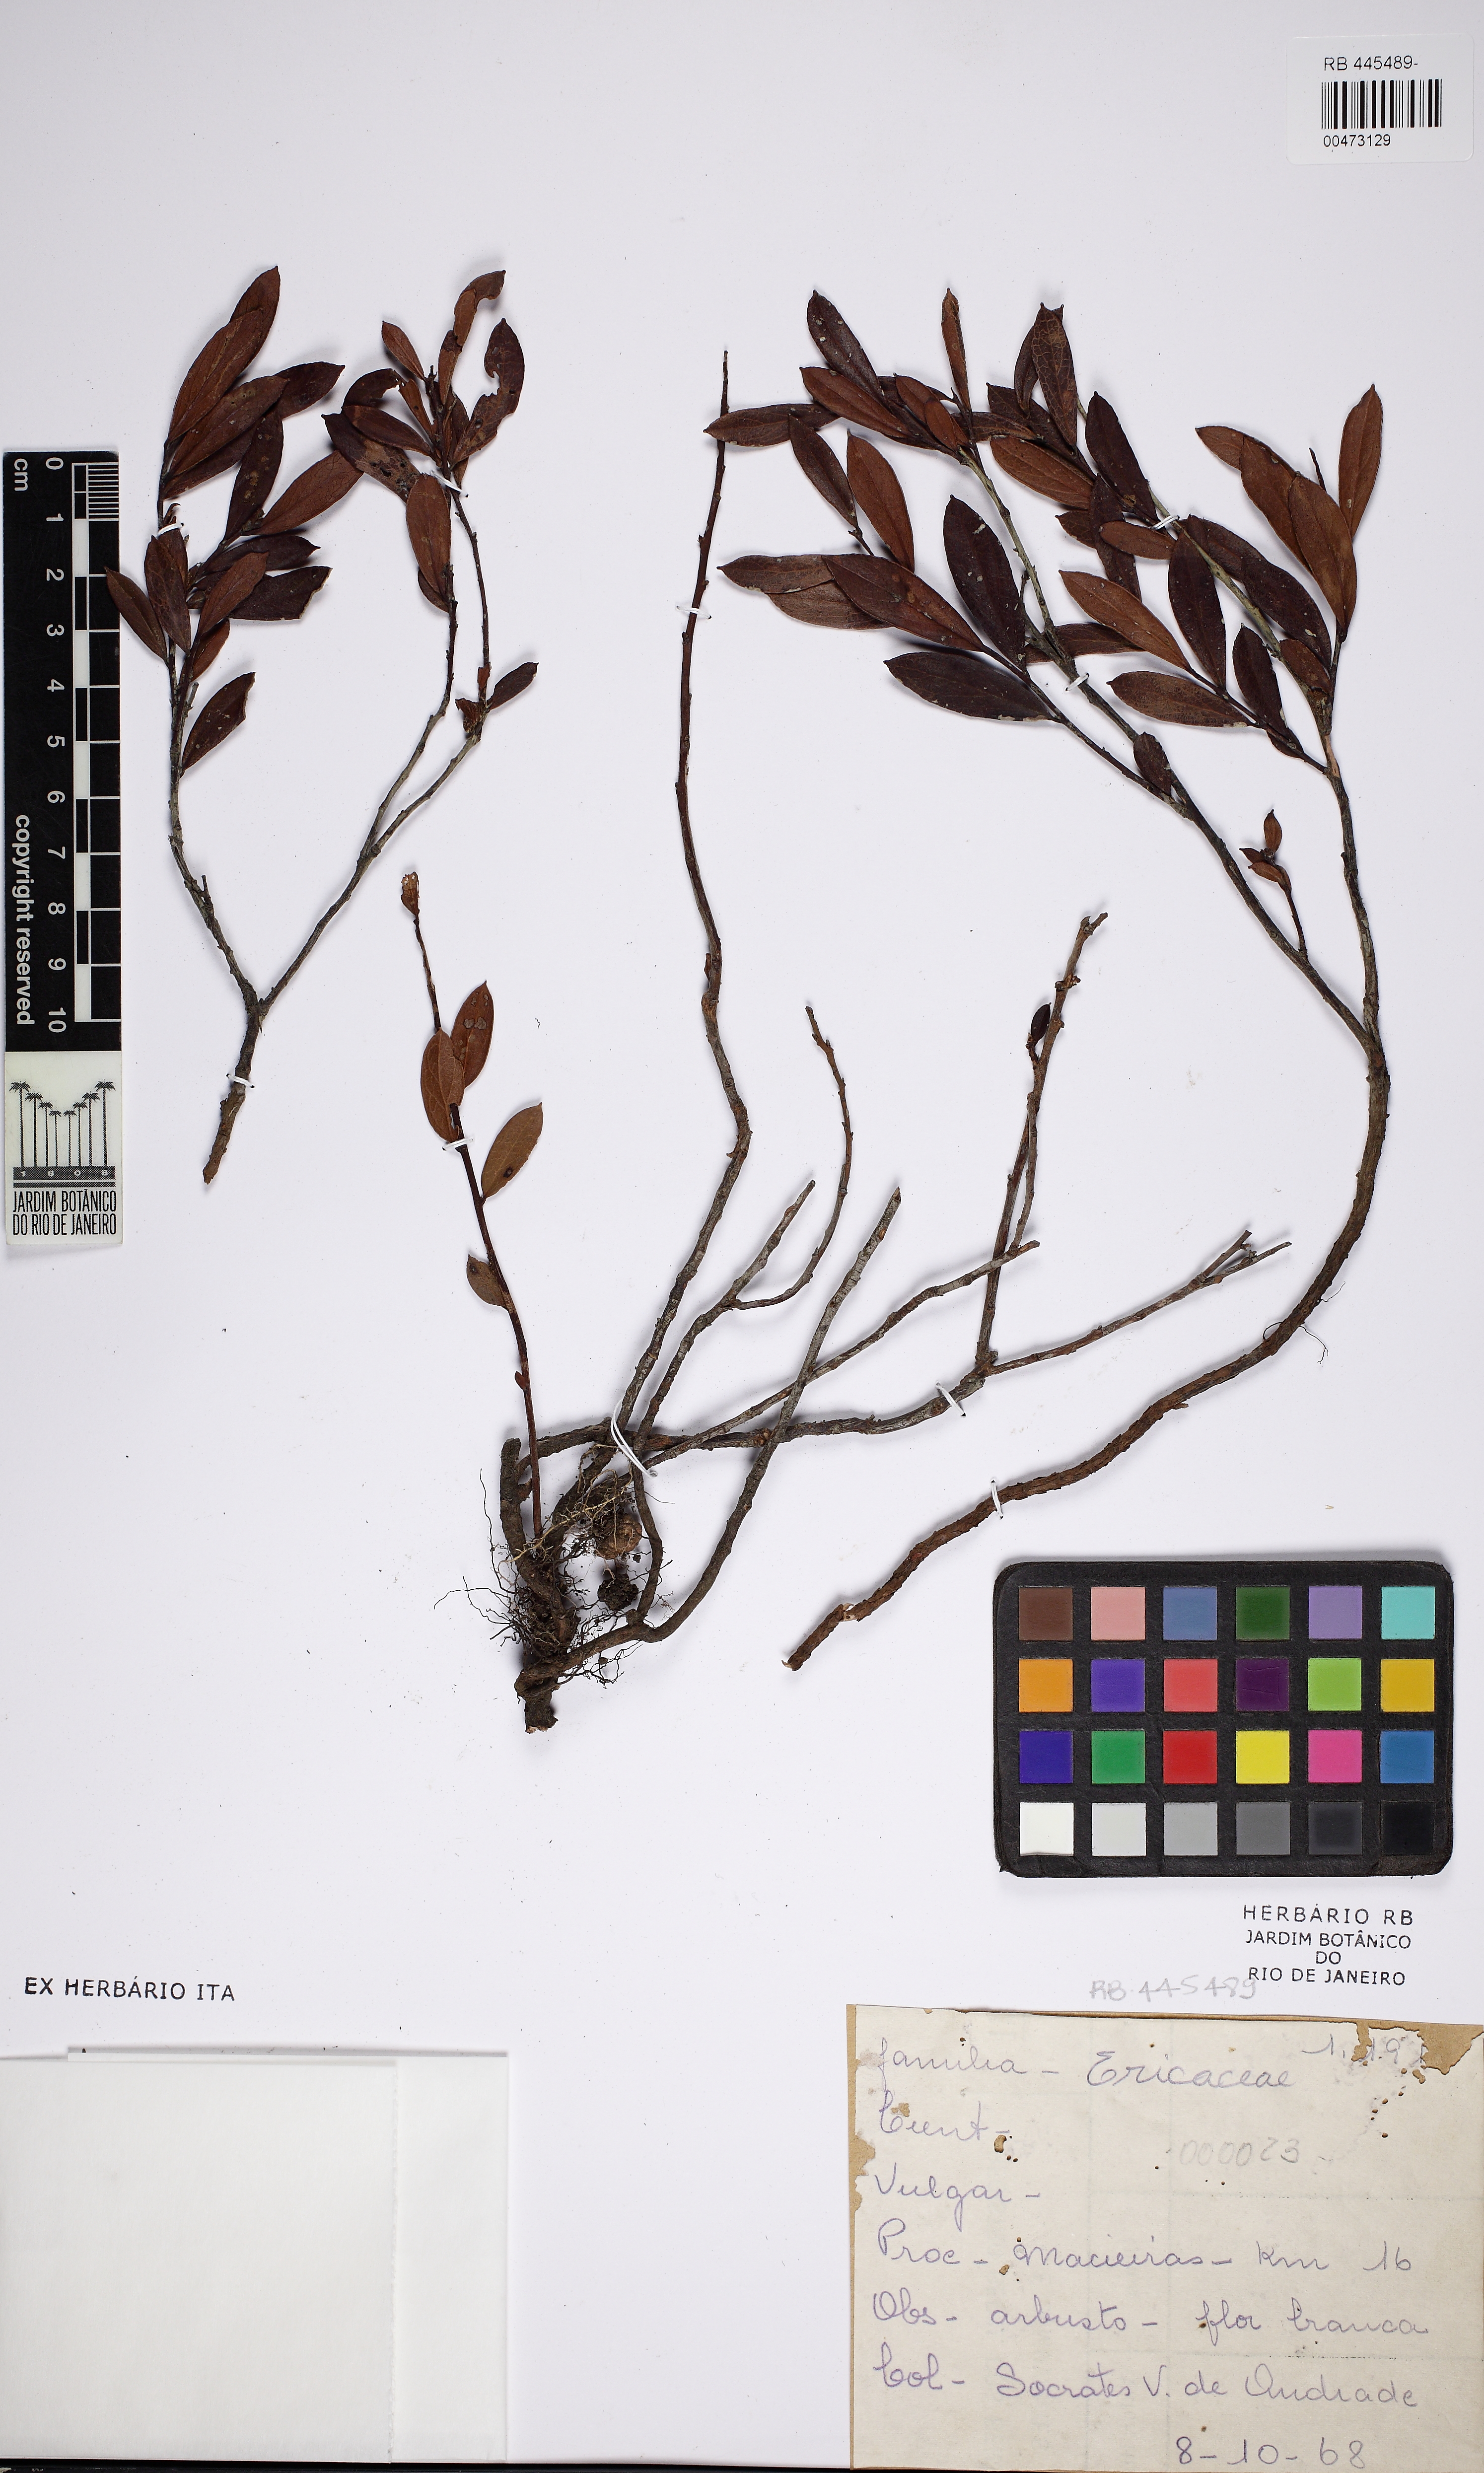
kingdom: Plantae
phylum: Tracheophyta
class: Magnoliopsida
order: Ericales
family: Ericaceae
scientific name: Ericaceae
